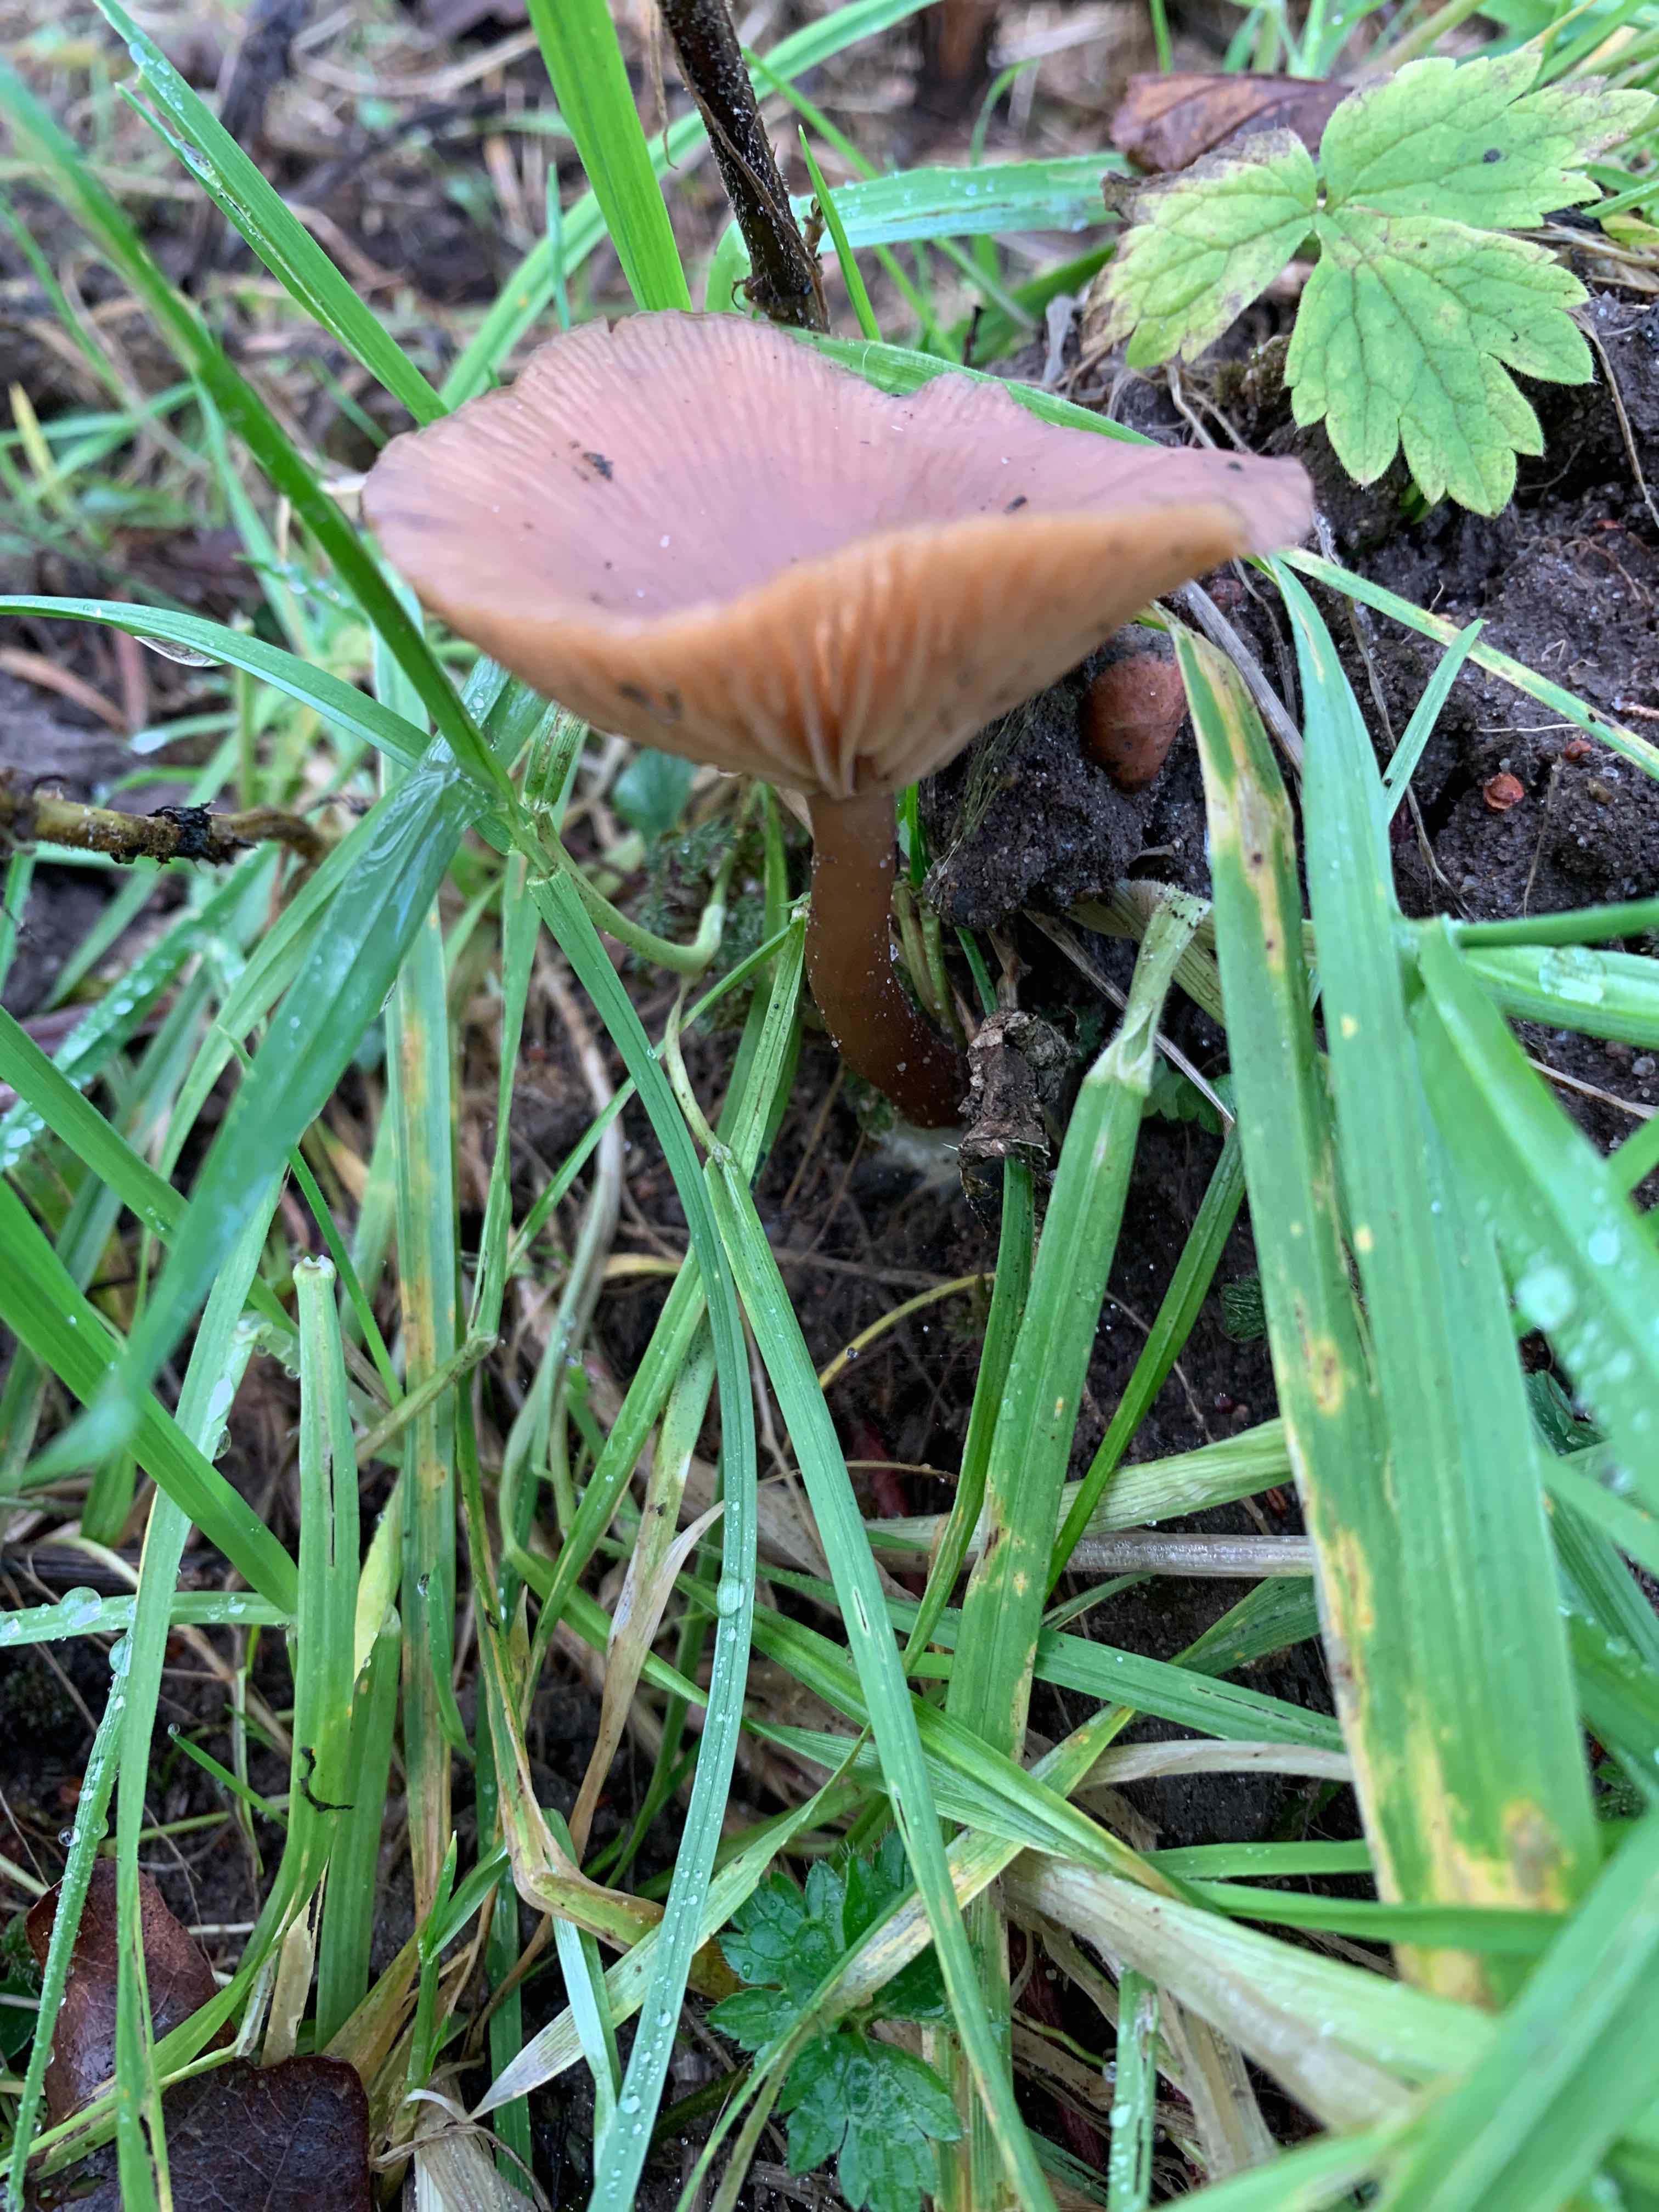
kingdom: Fungi
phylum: Basidiomycota
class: Agaricomycetes
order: Agaricales
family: Pseudoclitocybaceae
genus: Pseudoclitocybe
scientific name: Pseudoclitocybe cyathiformis
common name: almindelig bægertragthat
